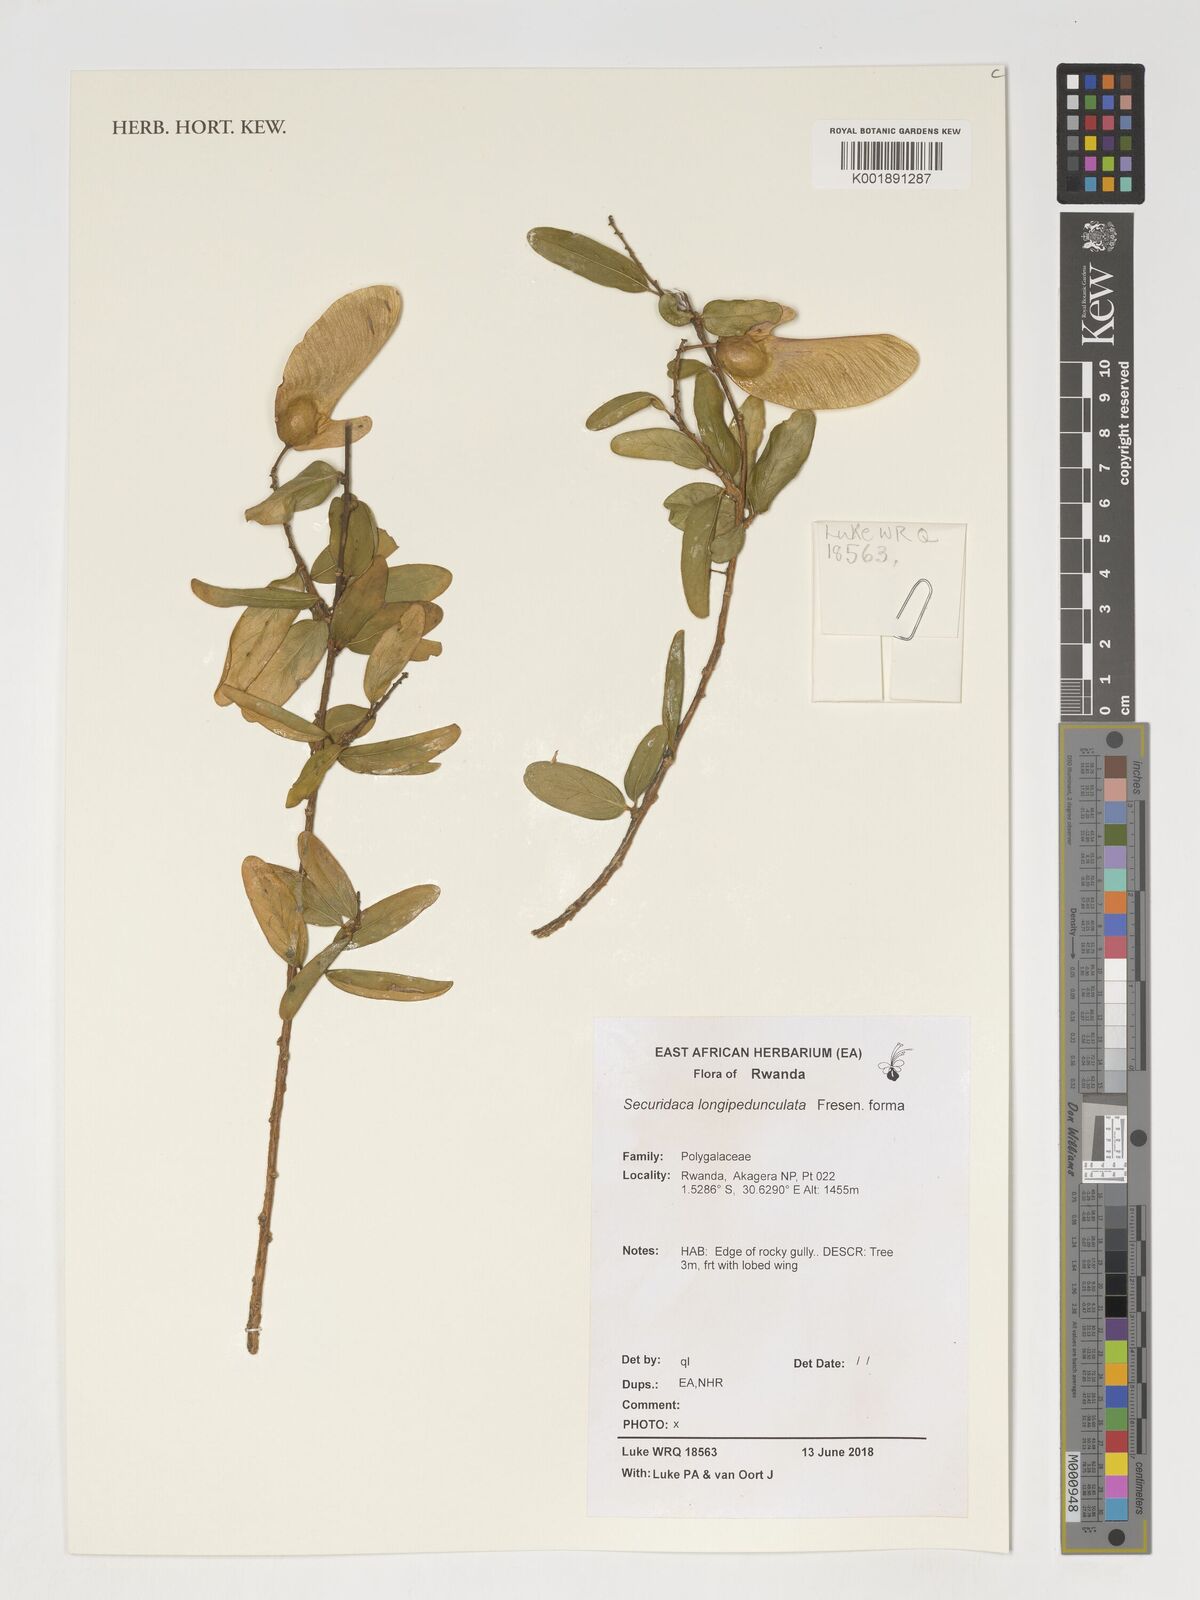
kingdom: Plantae
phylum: Tracheophyta
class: Magnoliopsida
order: Fabales
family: Polygalaceae
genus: Securidaca
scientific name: Securidaca
